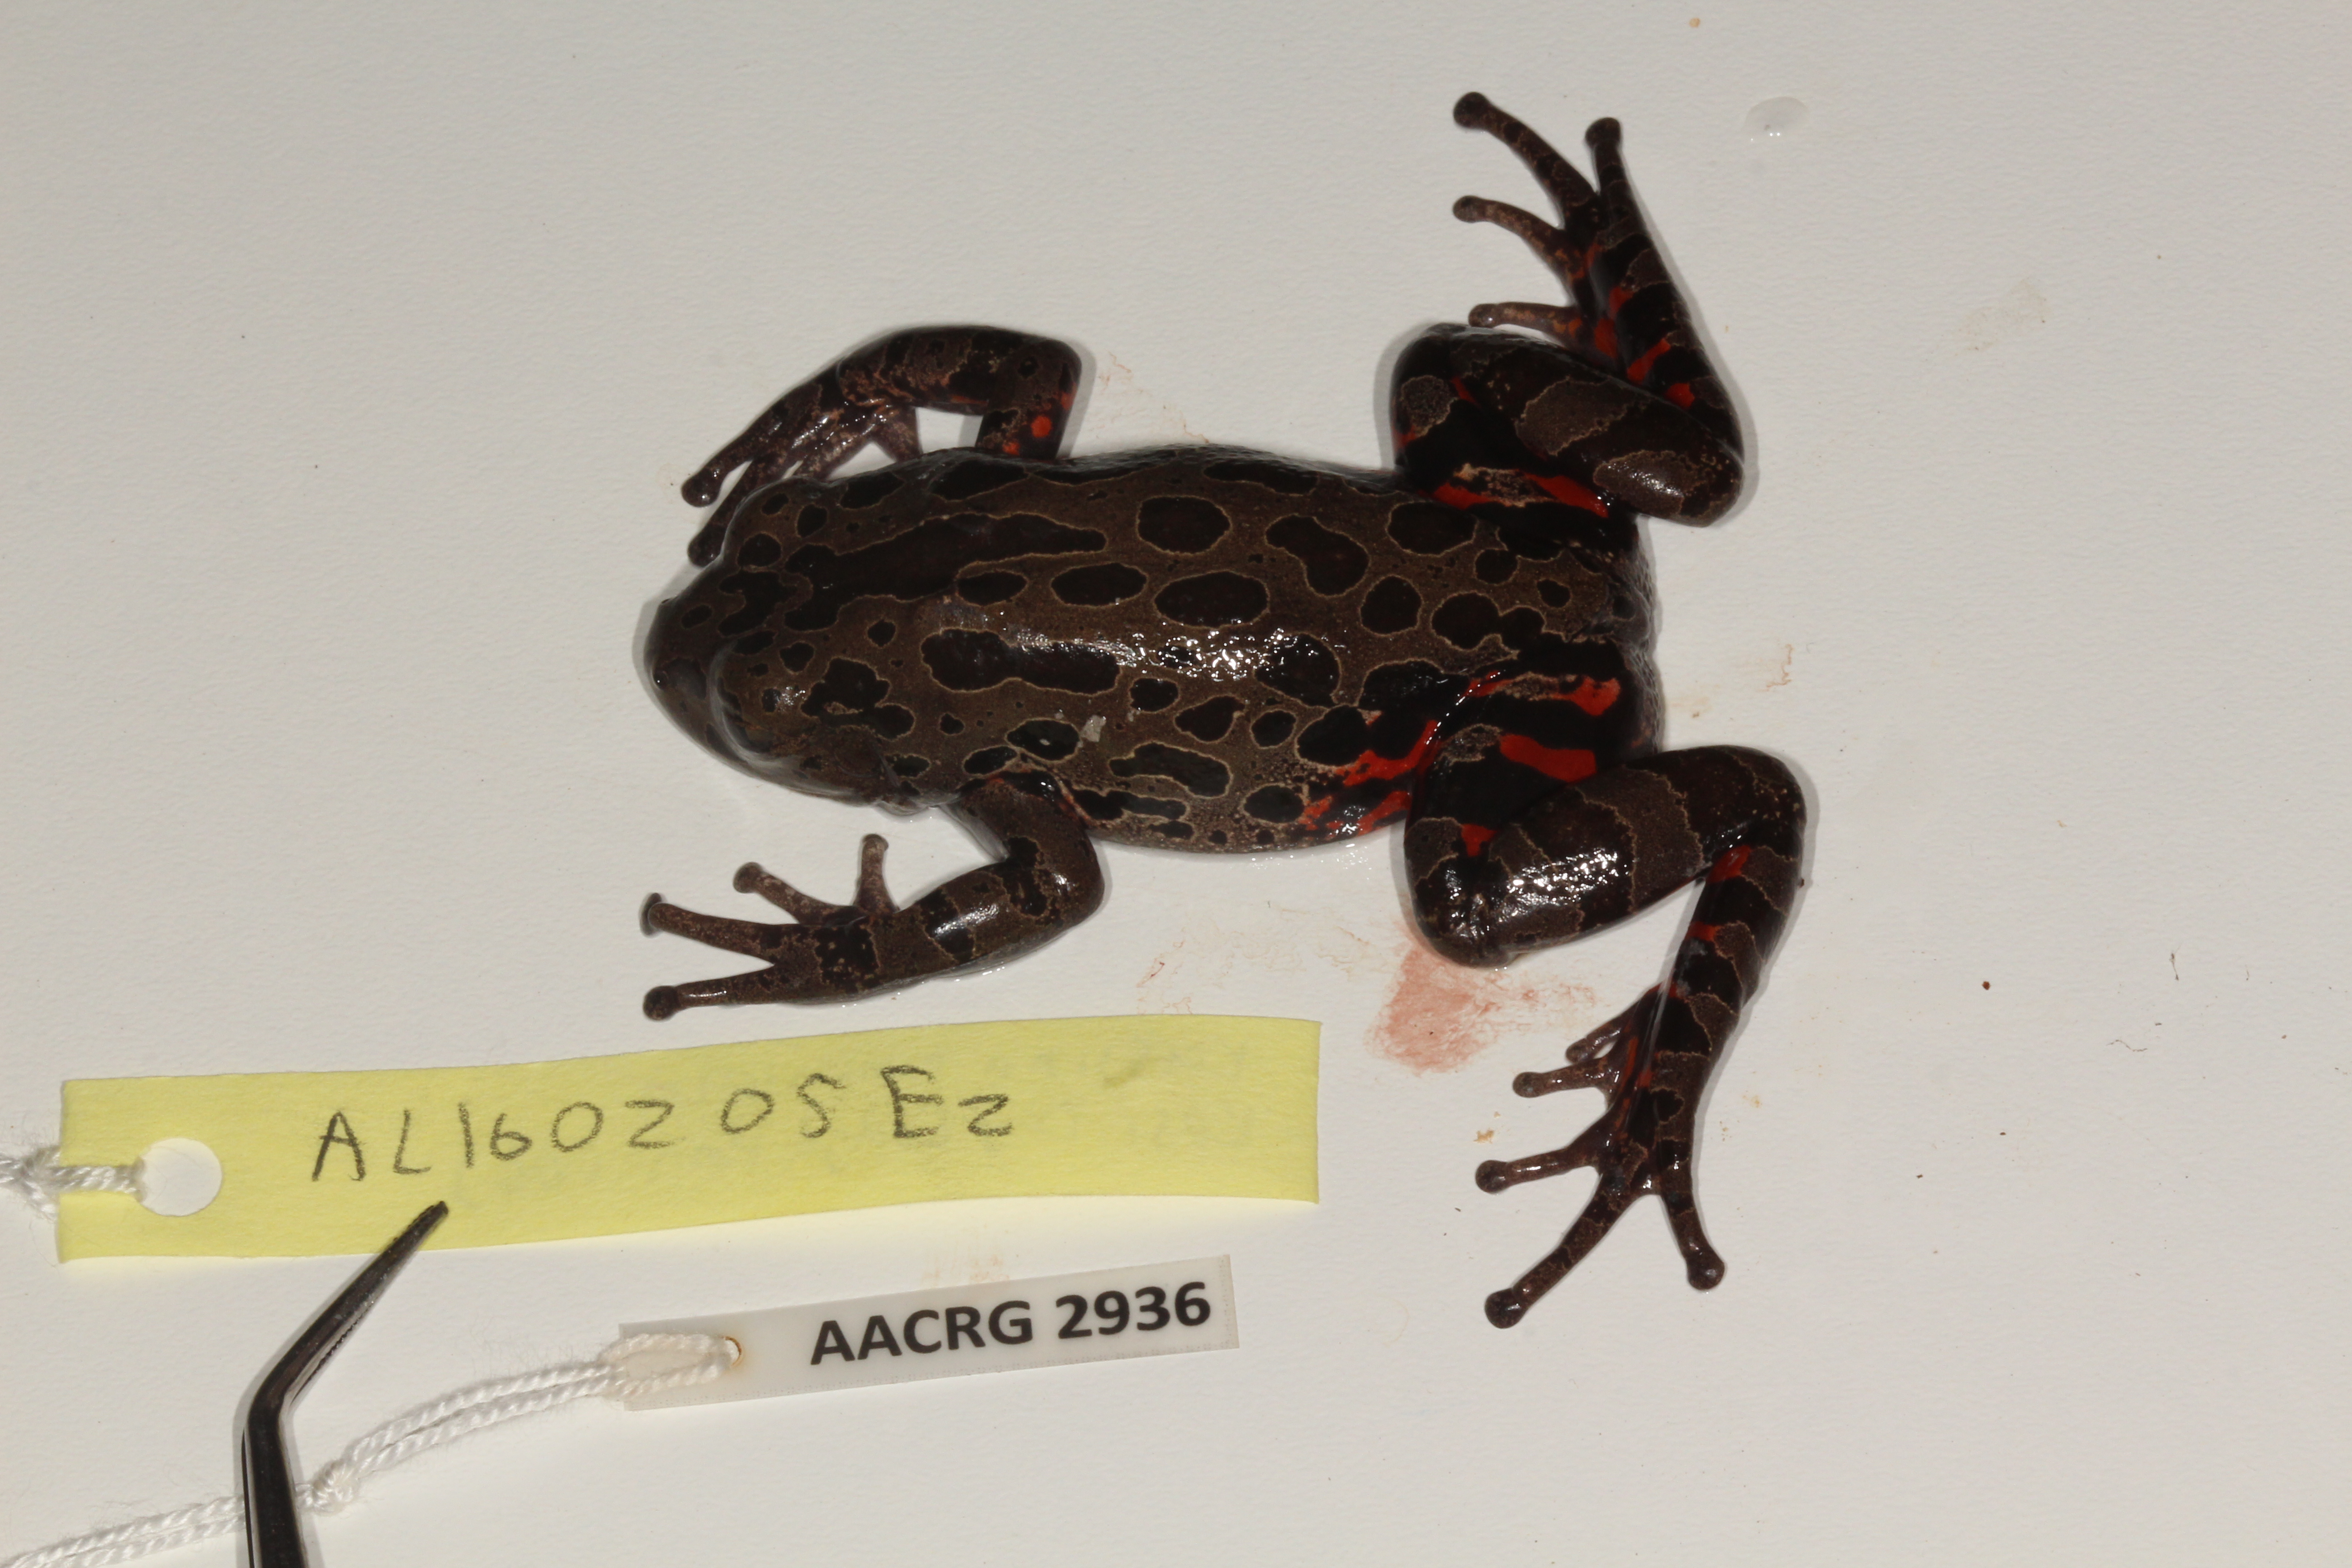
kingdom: Animalia
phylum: Chordata
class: Amphibia
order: Anura
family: Hyperoliidae
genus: Phlyctimantis
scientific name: Phlyctimantis maculatus
